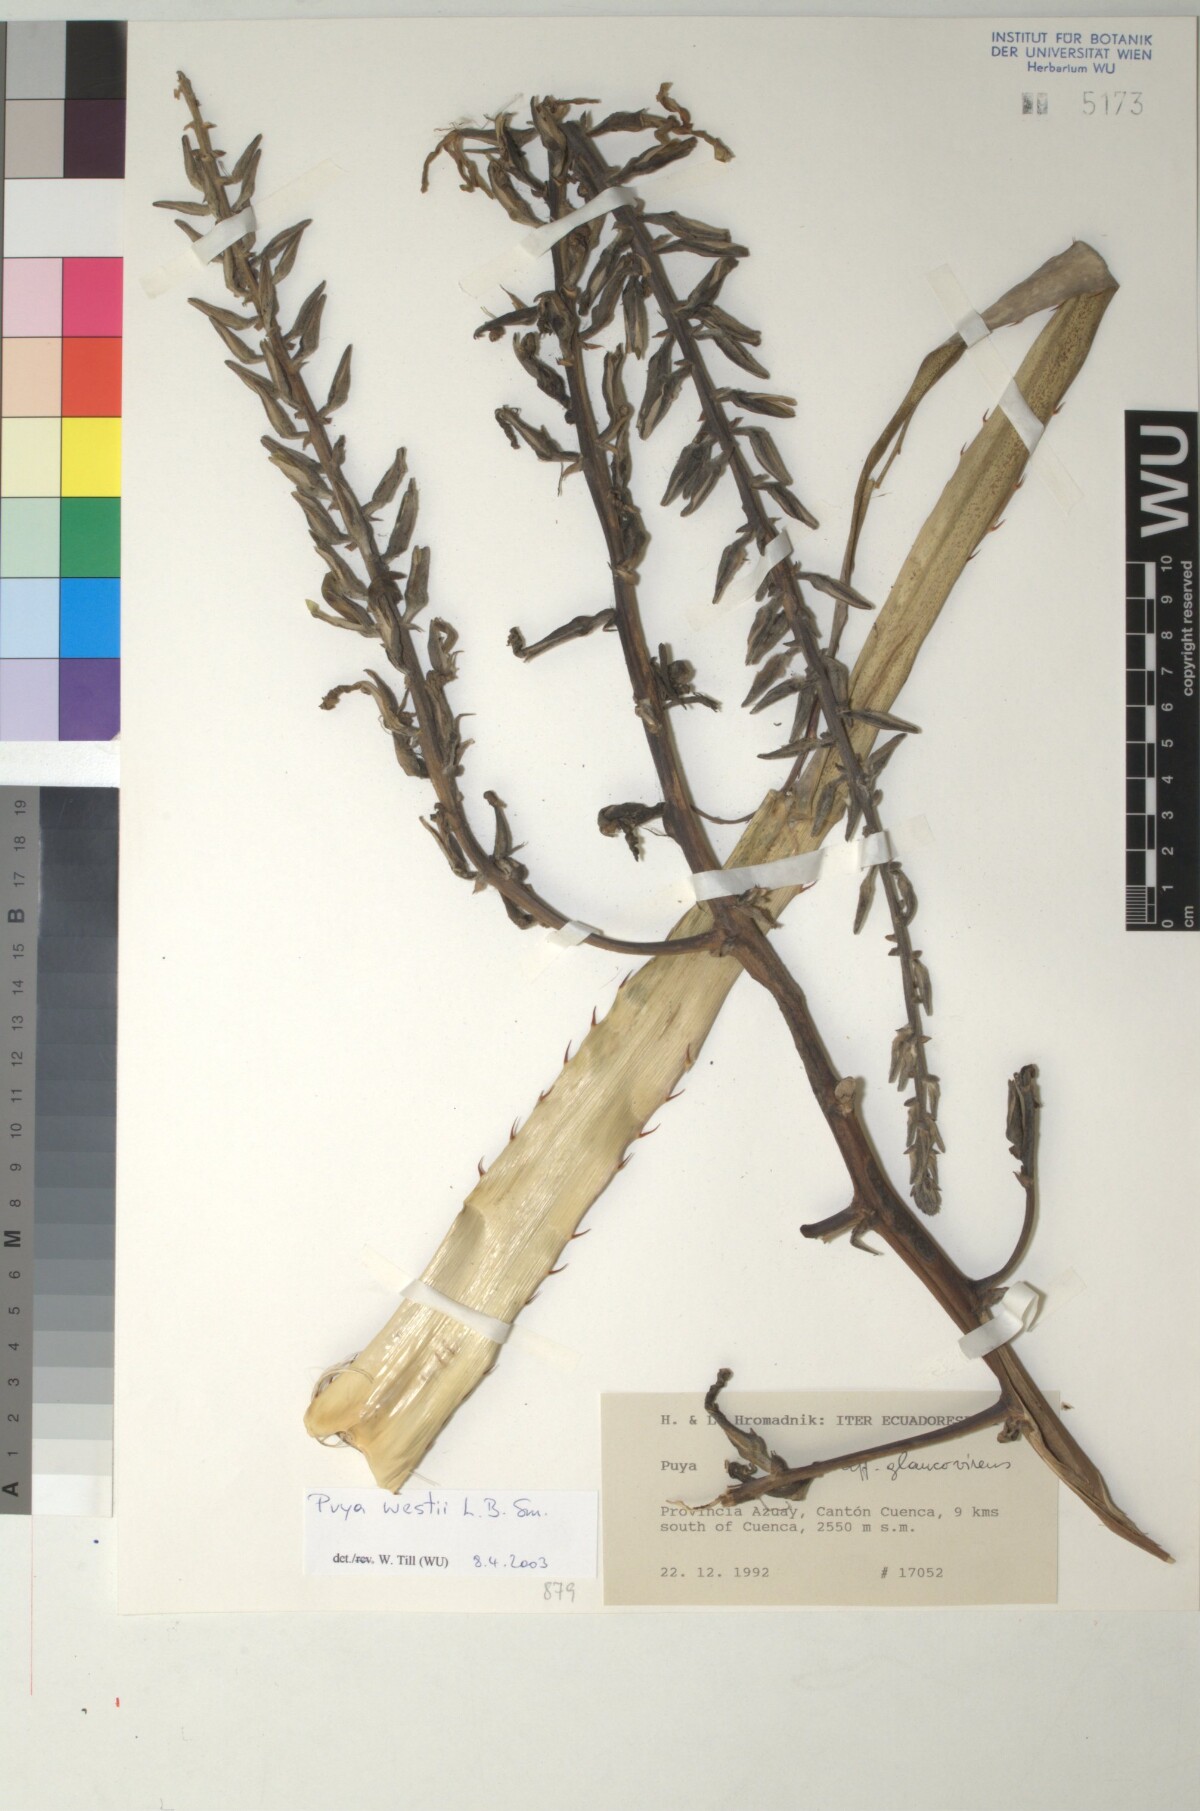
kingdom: Plantae
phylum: Tracheophyta
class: Liliopsida
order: Poales
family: Bromeliaceae
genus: Puya
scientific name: Puya westii
